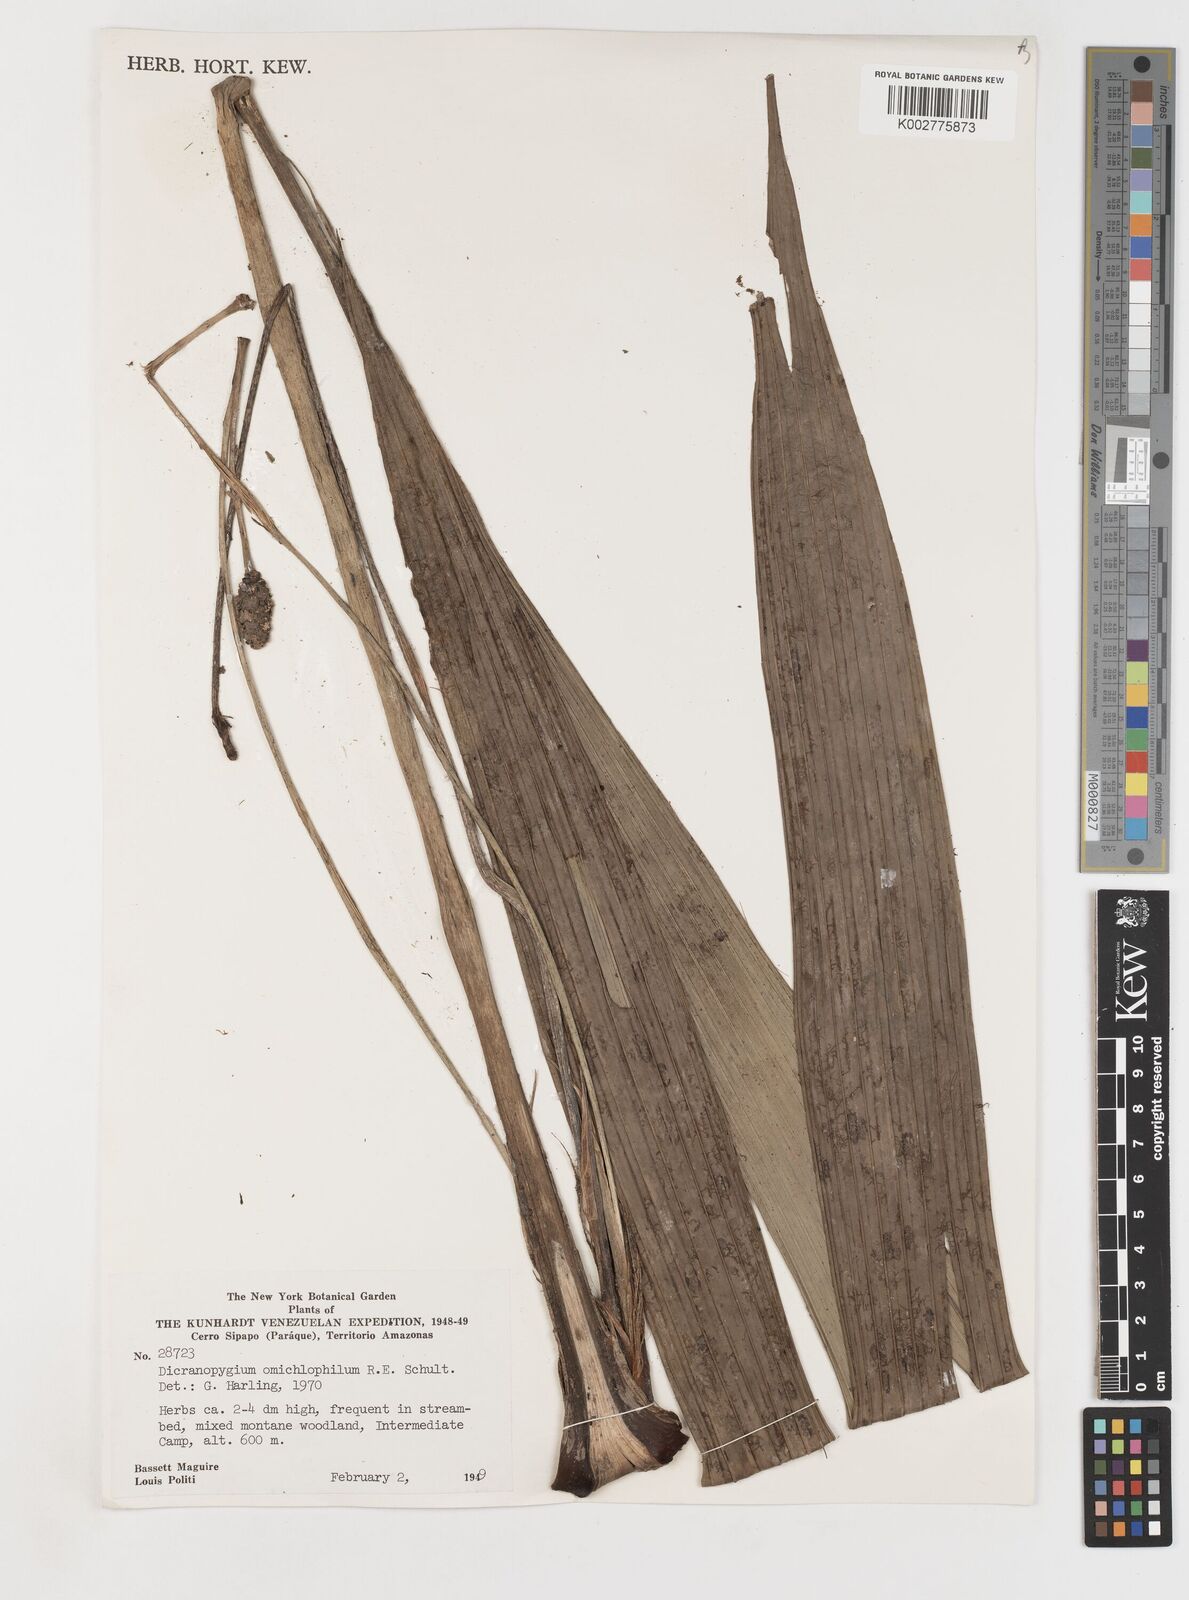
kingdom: Plantae
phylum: Tracheophyta
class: Liliopsida
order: Pandanales
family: Cyclanthaceae
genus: Dicranopygium
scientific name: Dicranopygium omichlophilum
